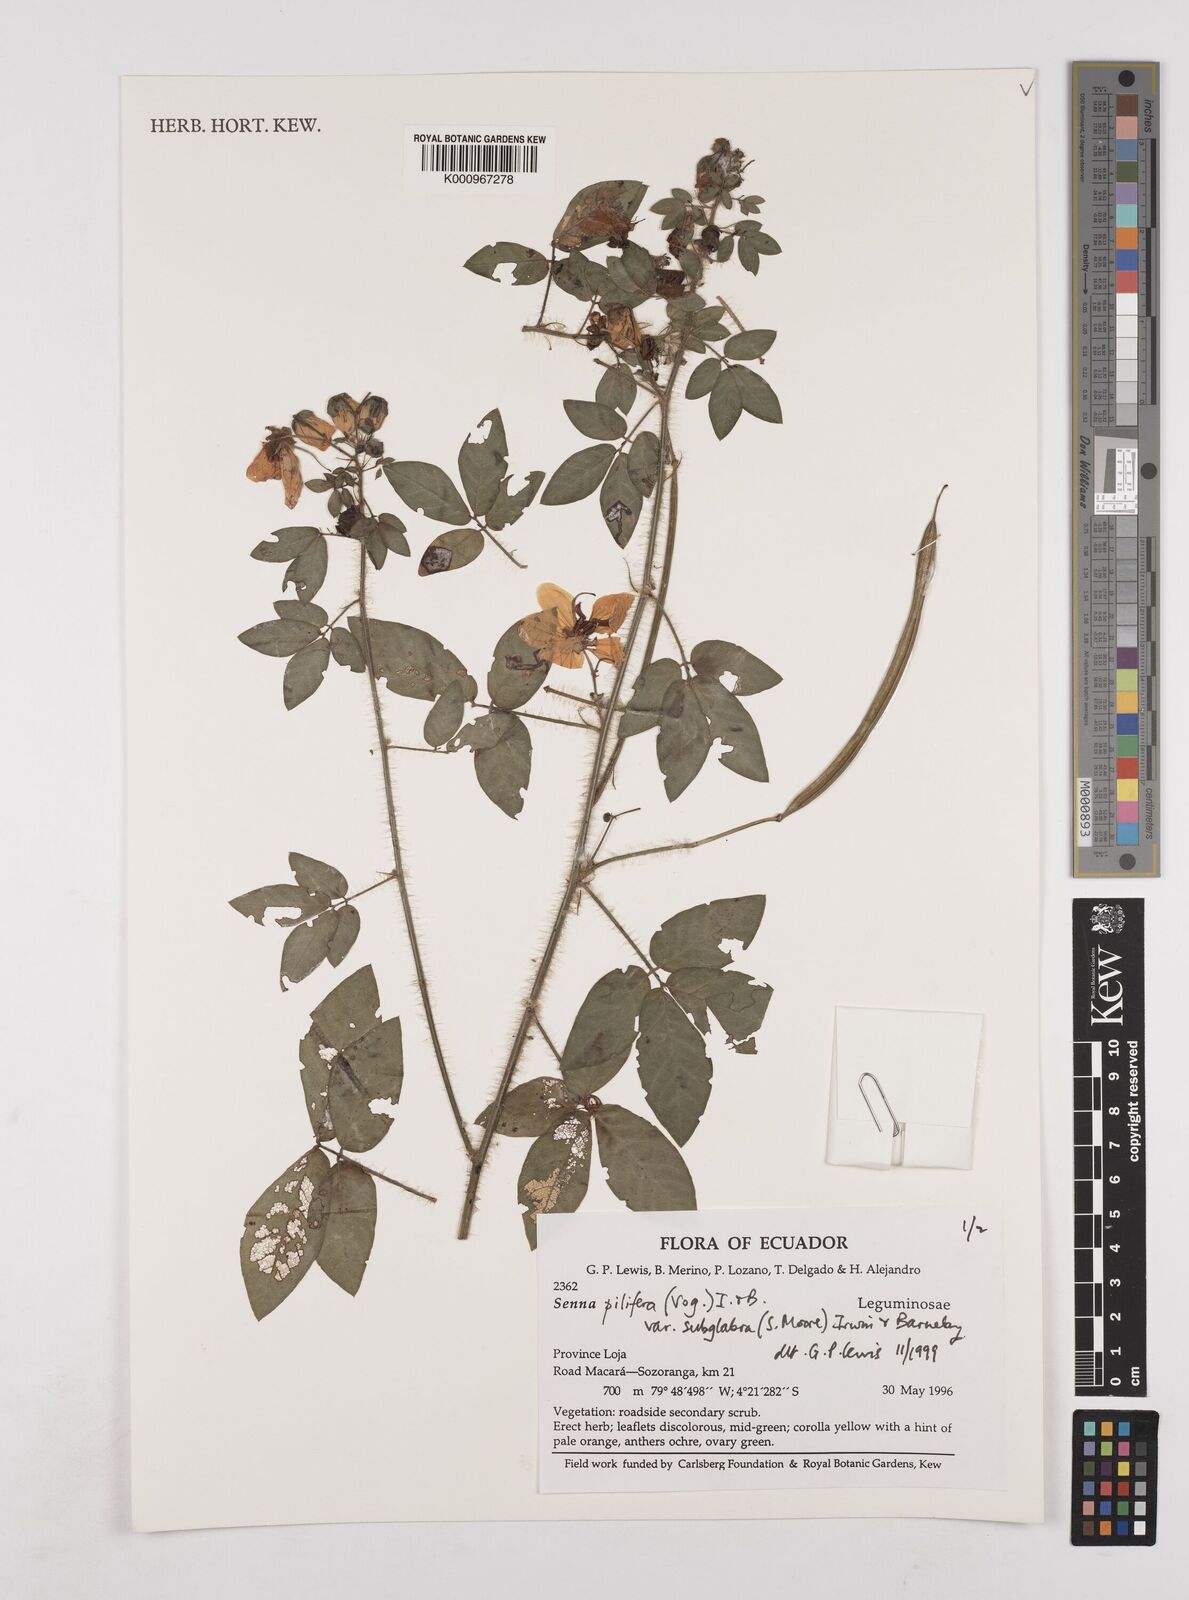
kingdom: Plantae
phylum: Tracheophyta
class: Magnoliopsida
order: Fabales
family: Fabaceae
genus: Senna
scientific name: Senna pilifera
